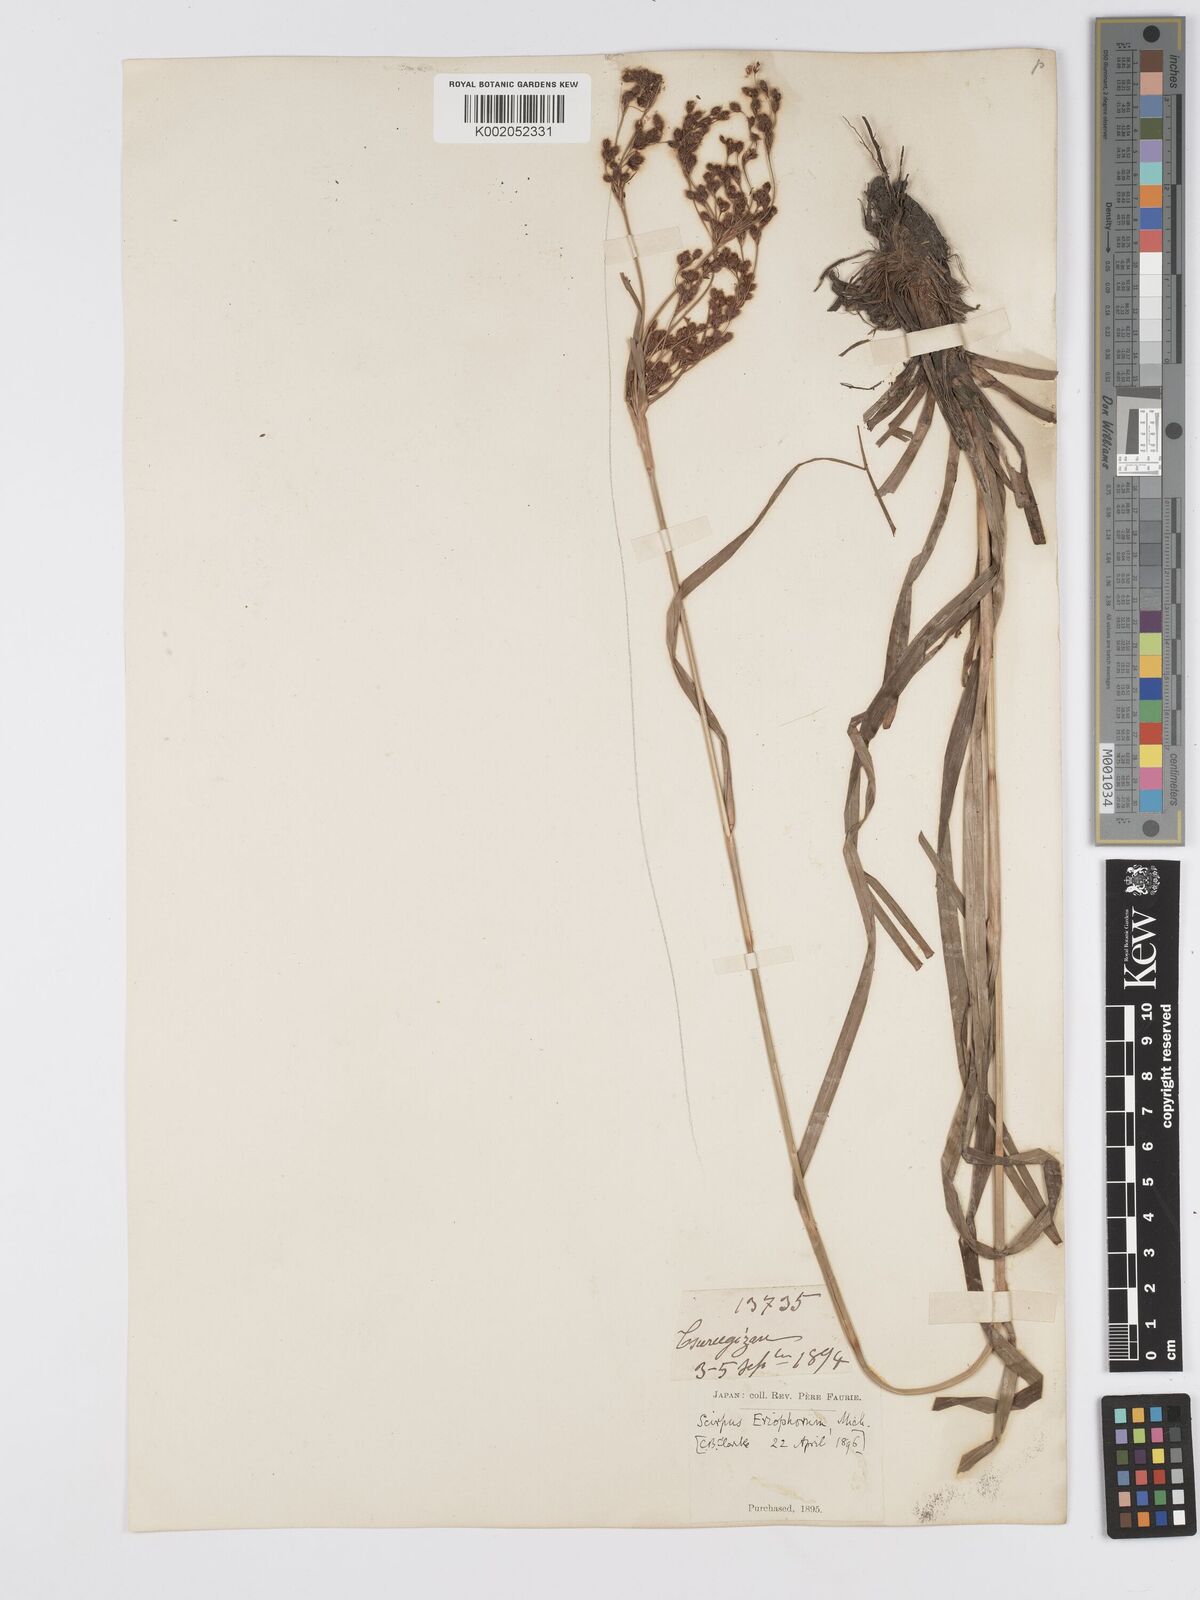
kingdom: Plantae
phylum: Tracheophyta
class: Liliopsida
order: Poales
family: Cyperaceae
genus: Scirpus
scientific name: Scirpus cyperinus
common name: Black-sheathed bulrush
